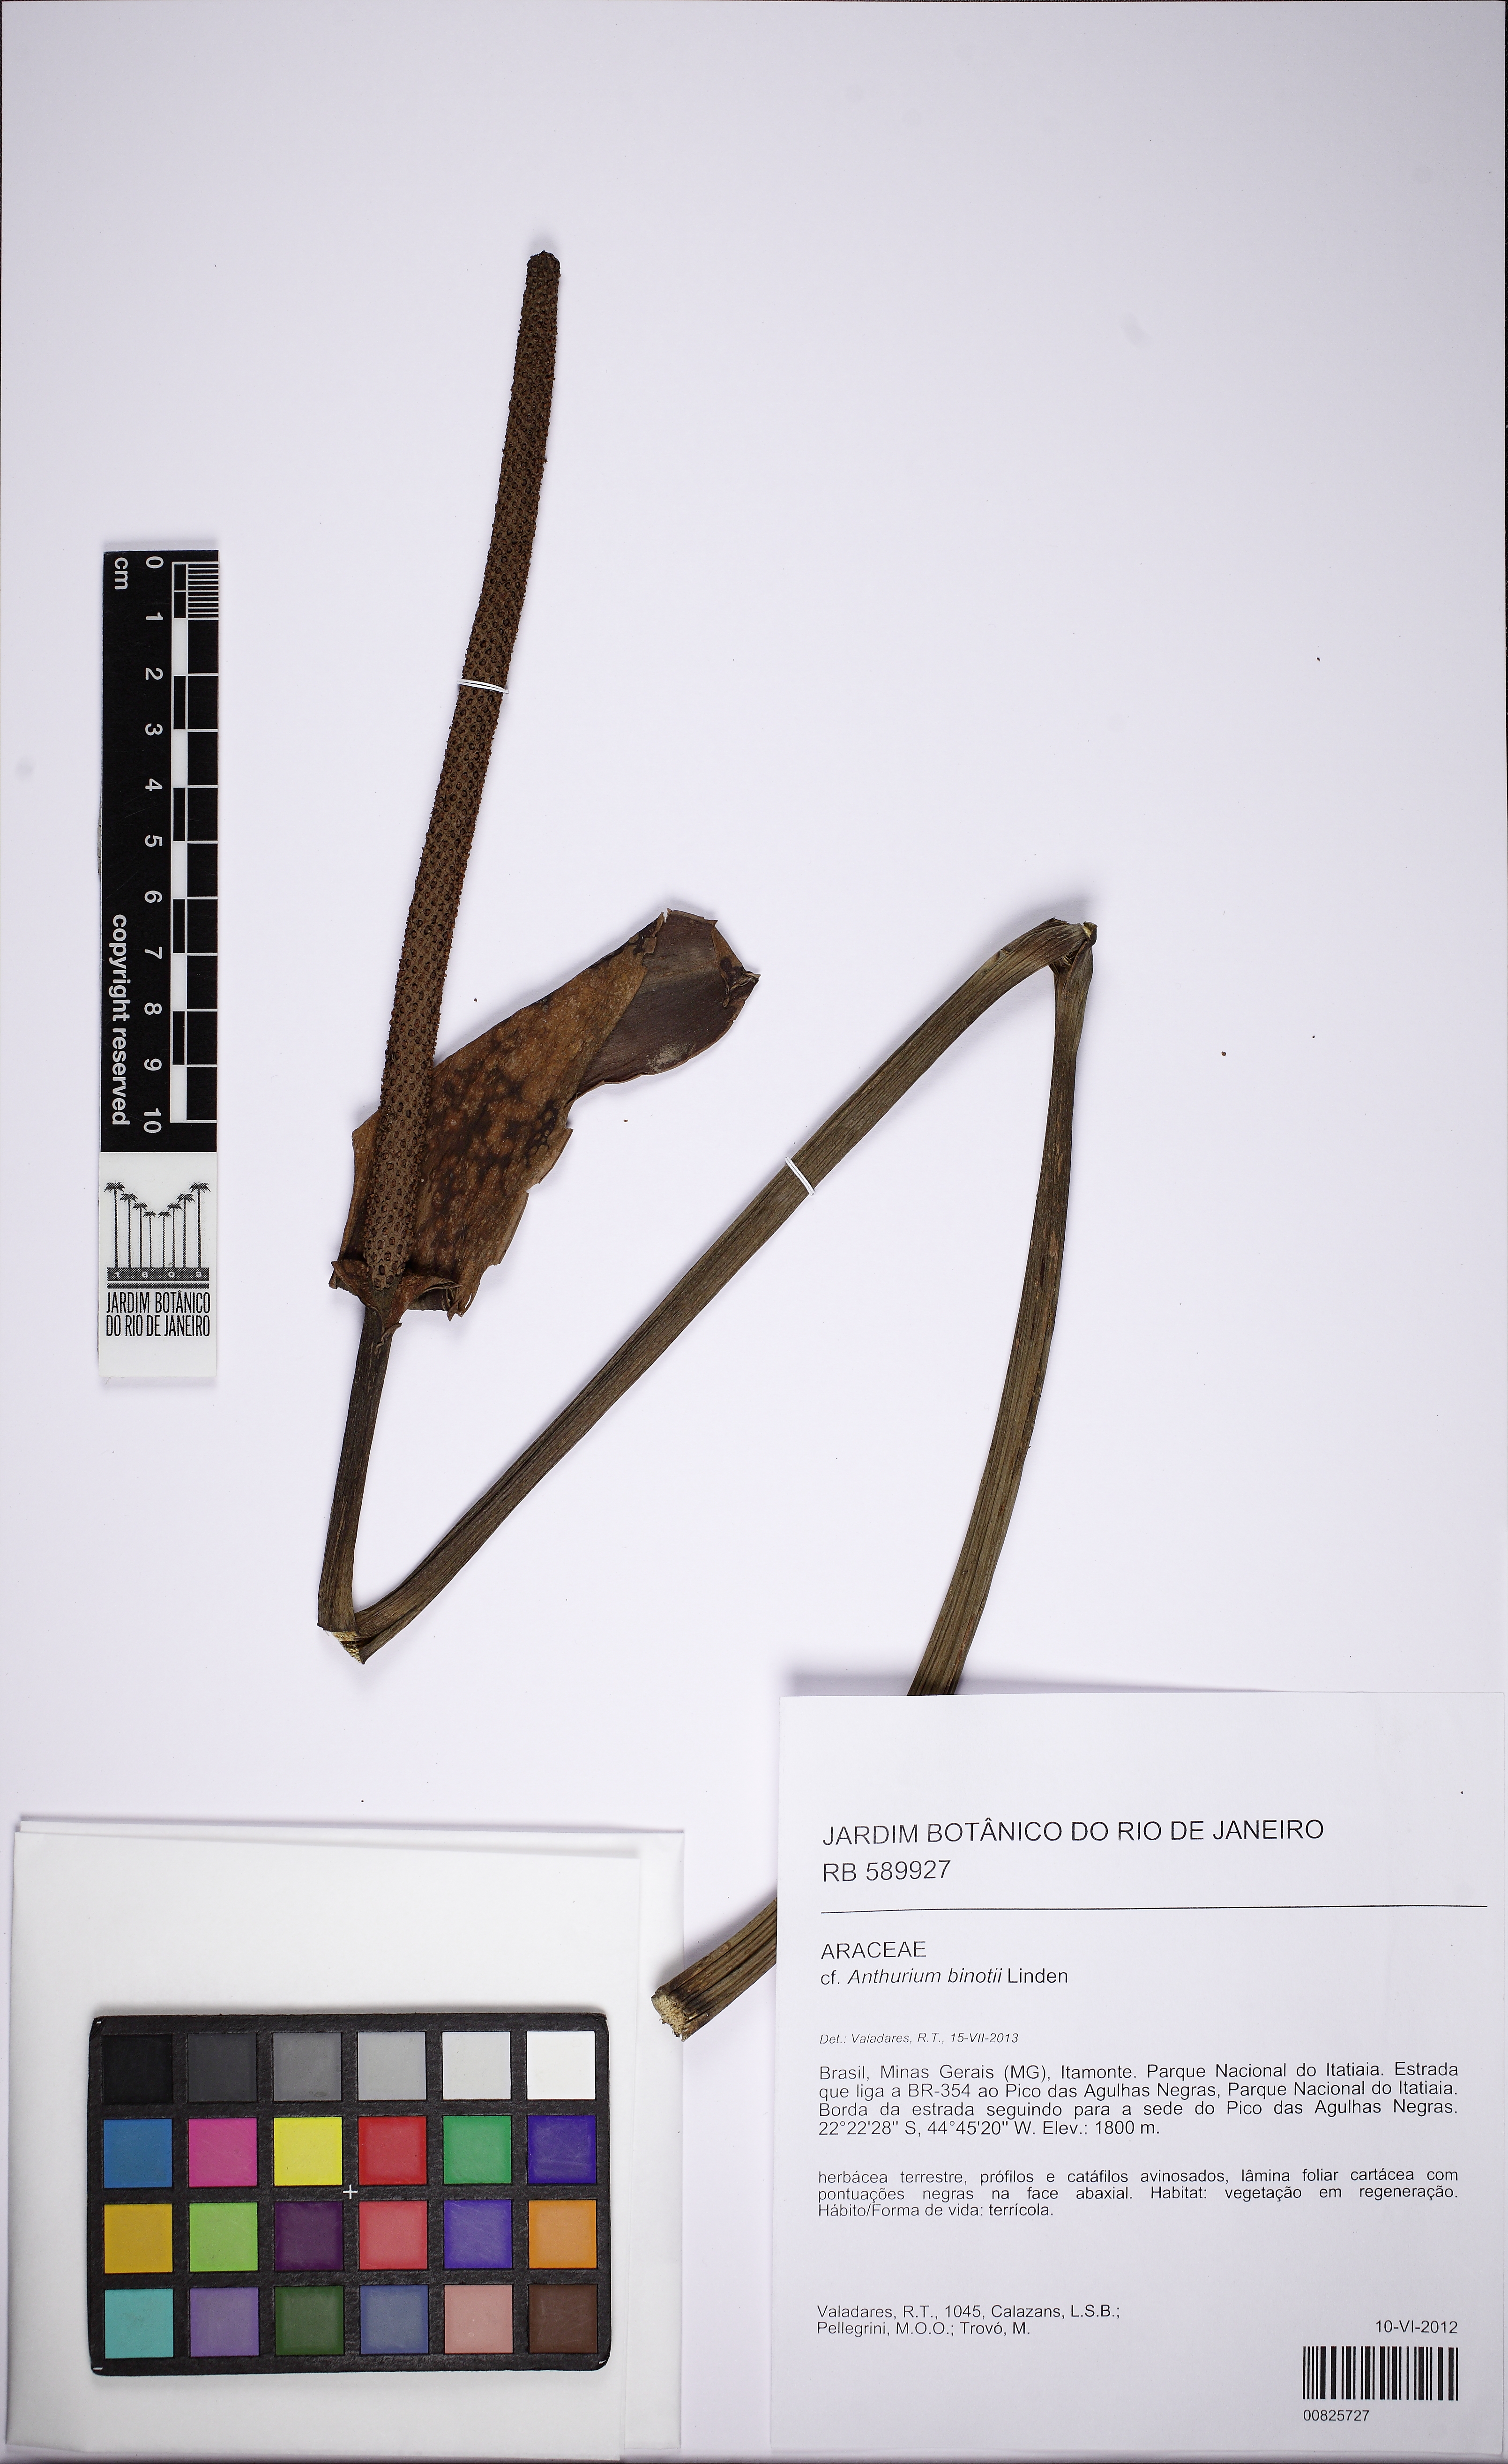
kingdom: Plantae
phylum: Tracheophyta
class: Liliopsida
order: Alismatales
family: Araceae
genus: Anthurium
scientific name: Anthurium binotii
